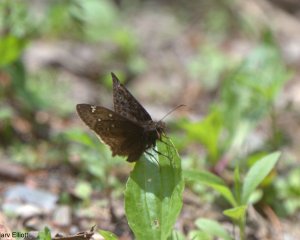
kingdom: Animalia
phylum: Arthropoda
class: Insecta
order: Lepidoptera
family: Hesperiidae
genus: Gesta
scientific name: Gesta
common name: Juvenal's Duskywing
